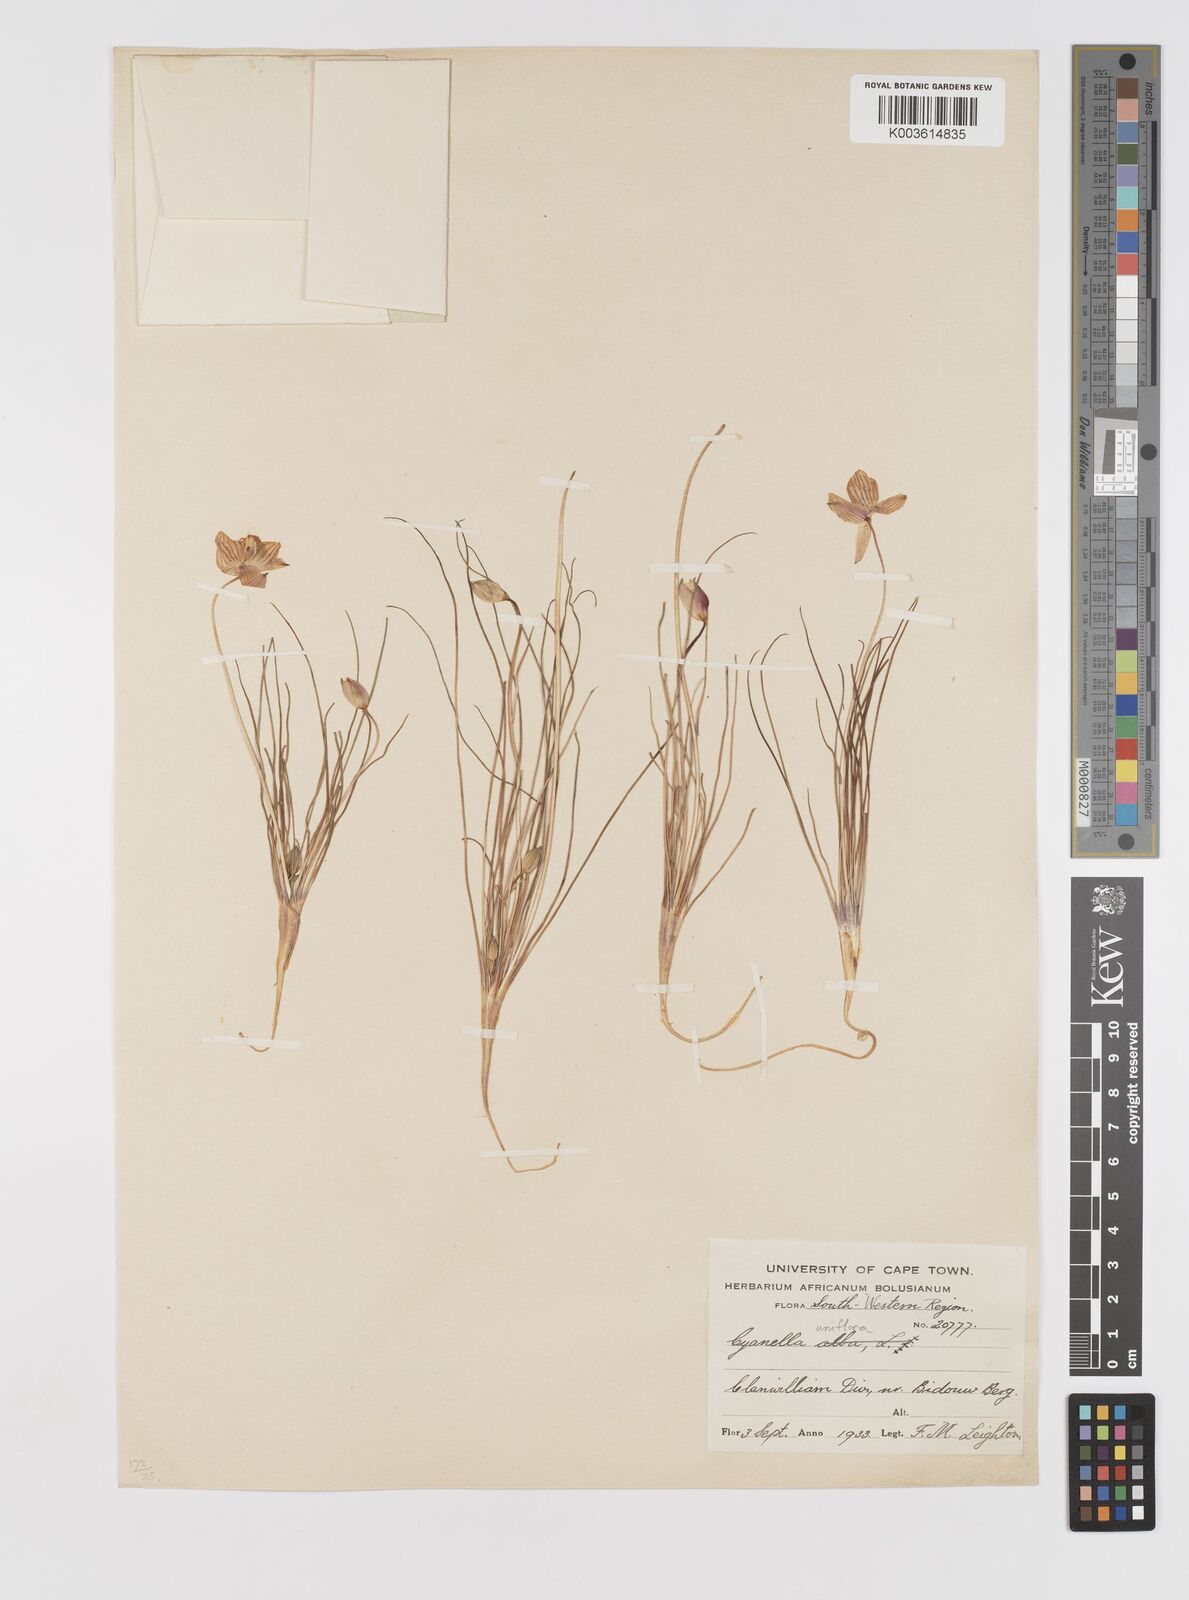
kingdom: Plantae
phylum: Tracheophyta
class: Liliopsida
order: Asparagales
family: Tecophilaeaceae
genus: Cyanella
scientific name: Cyanella
